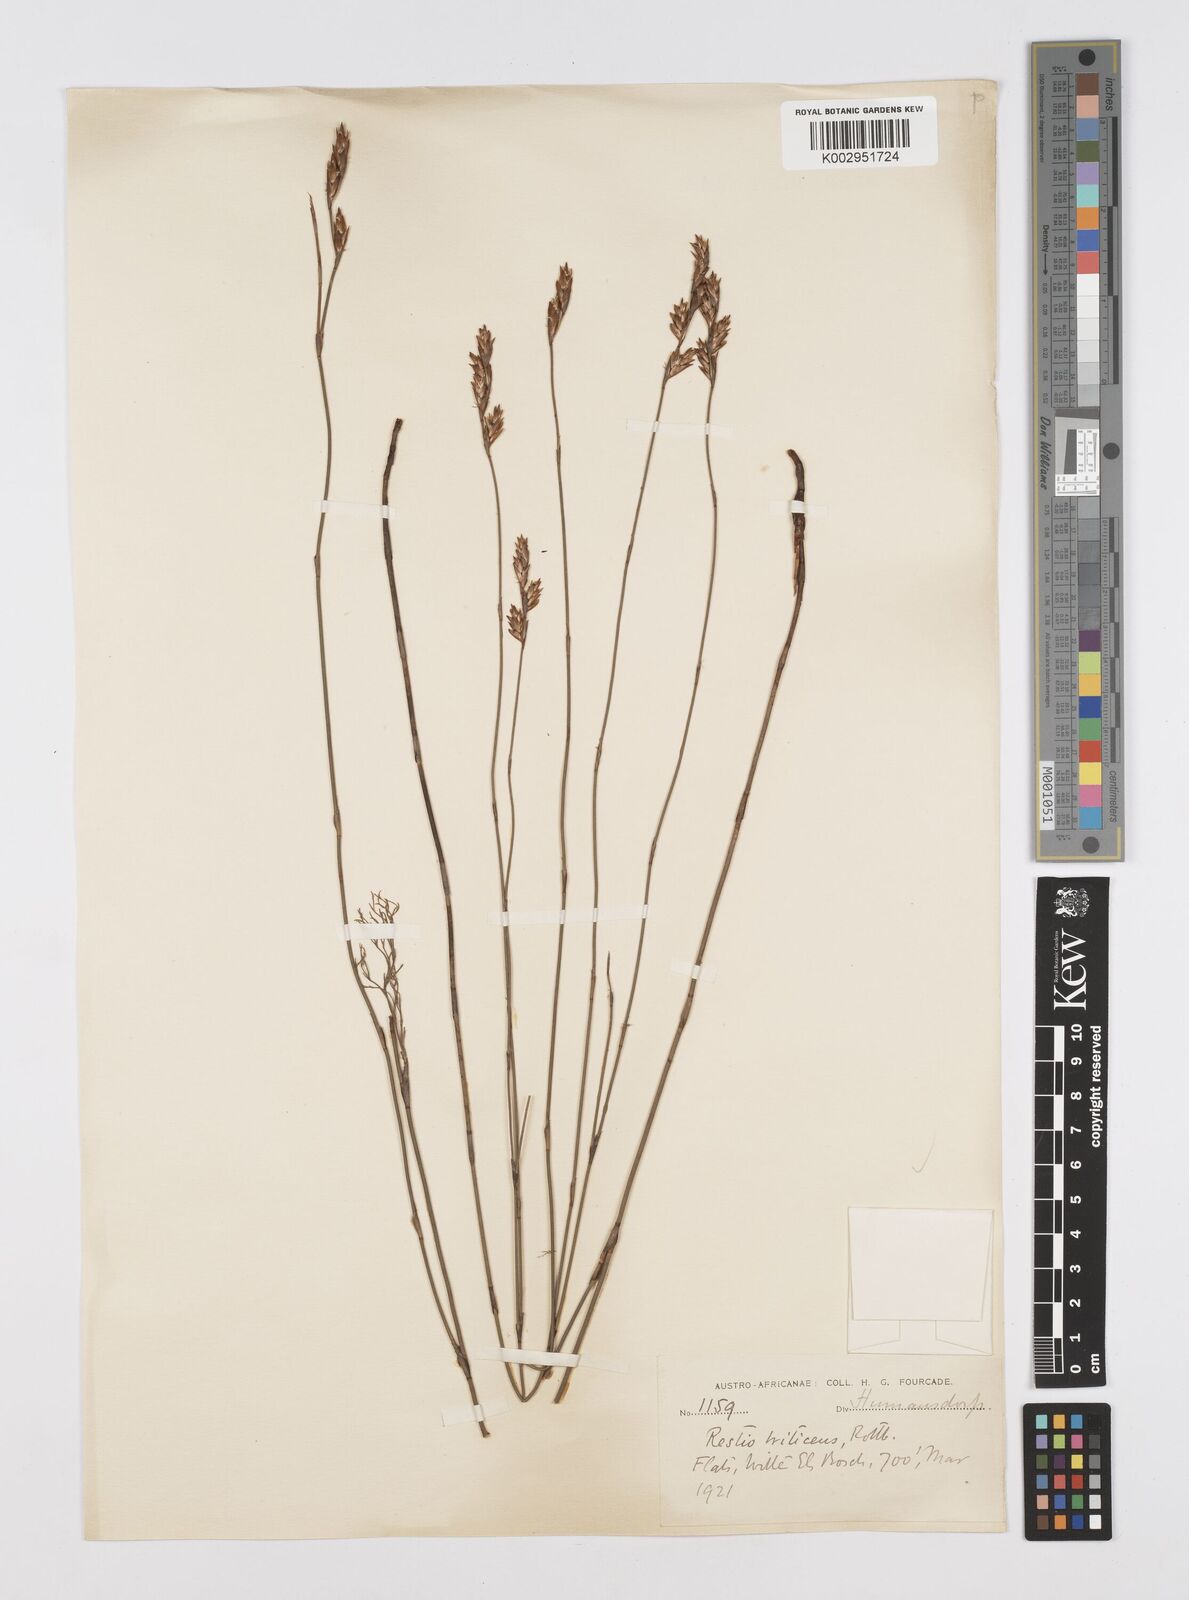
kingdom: Plantae
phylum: Tracheophyta
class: Liliopsida
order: Poales
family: Restionaceae
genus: Restio
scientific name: Restio triticeus
